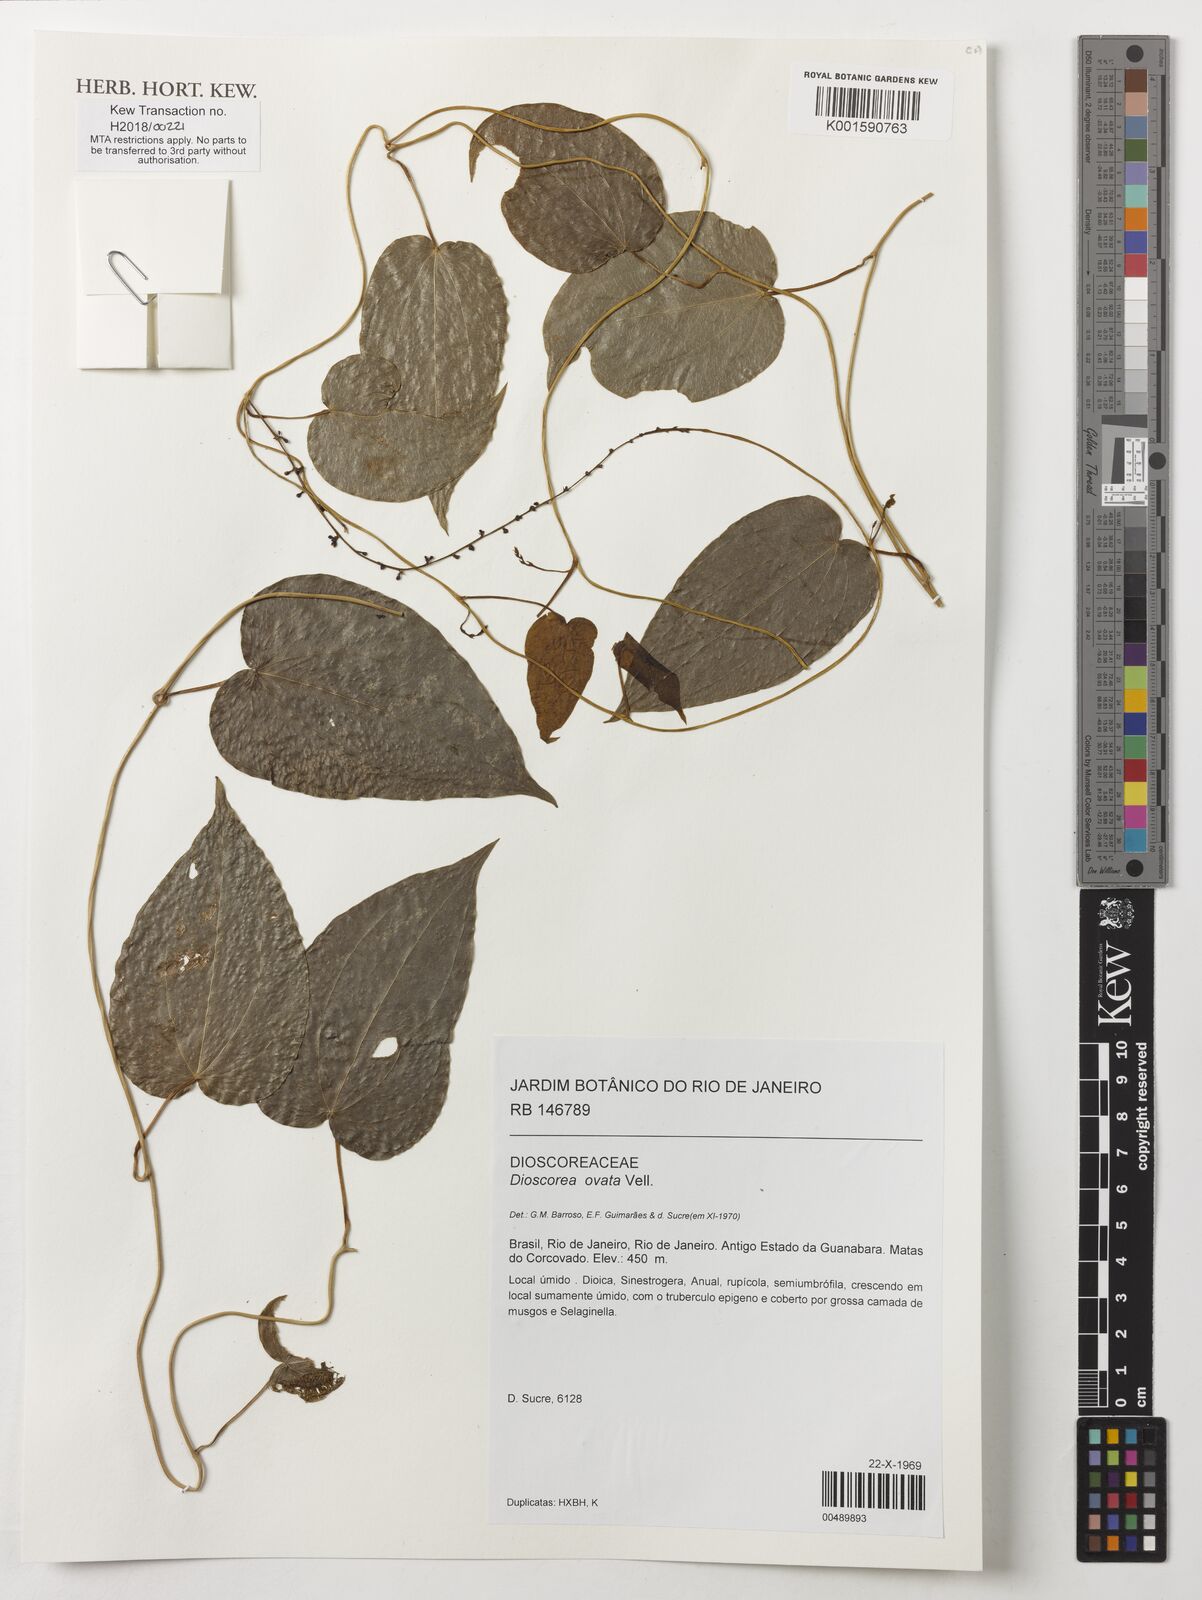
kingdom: Plantae
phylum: Tracheophyta
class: Liliopsida
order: Dioscoreales
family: Dioscoreaceae
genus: Dioscorea
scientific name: Dioscorea ovata
